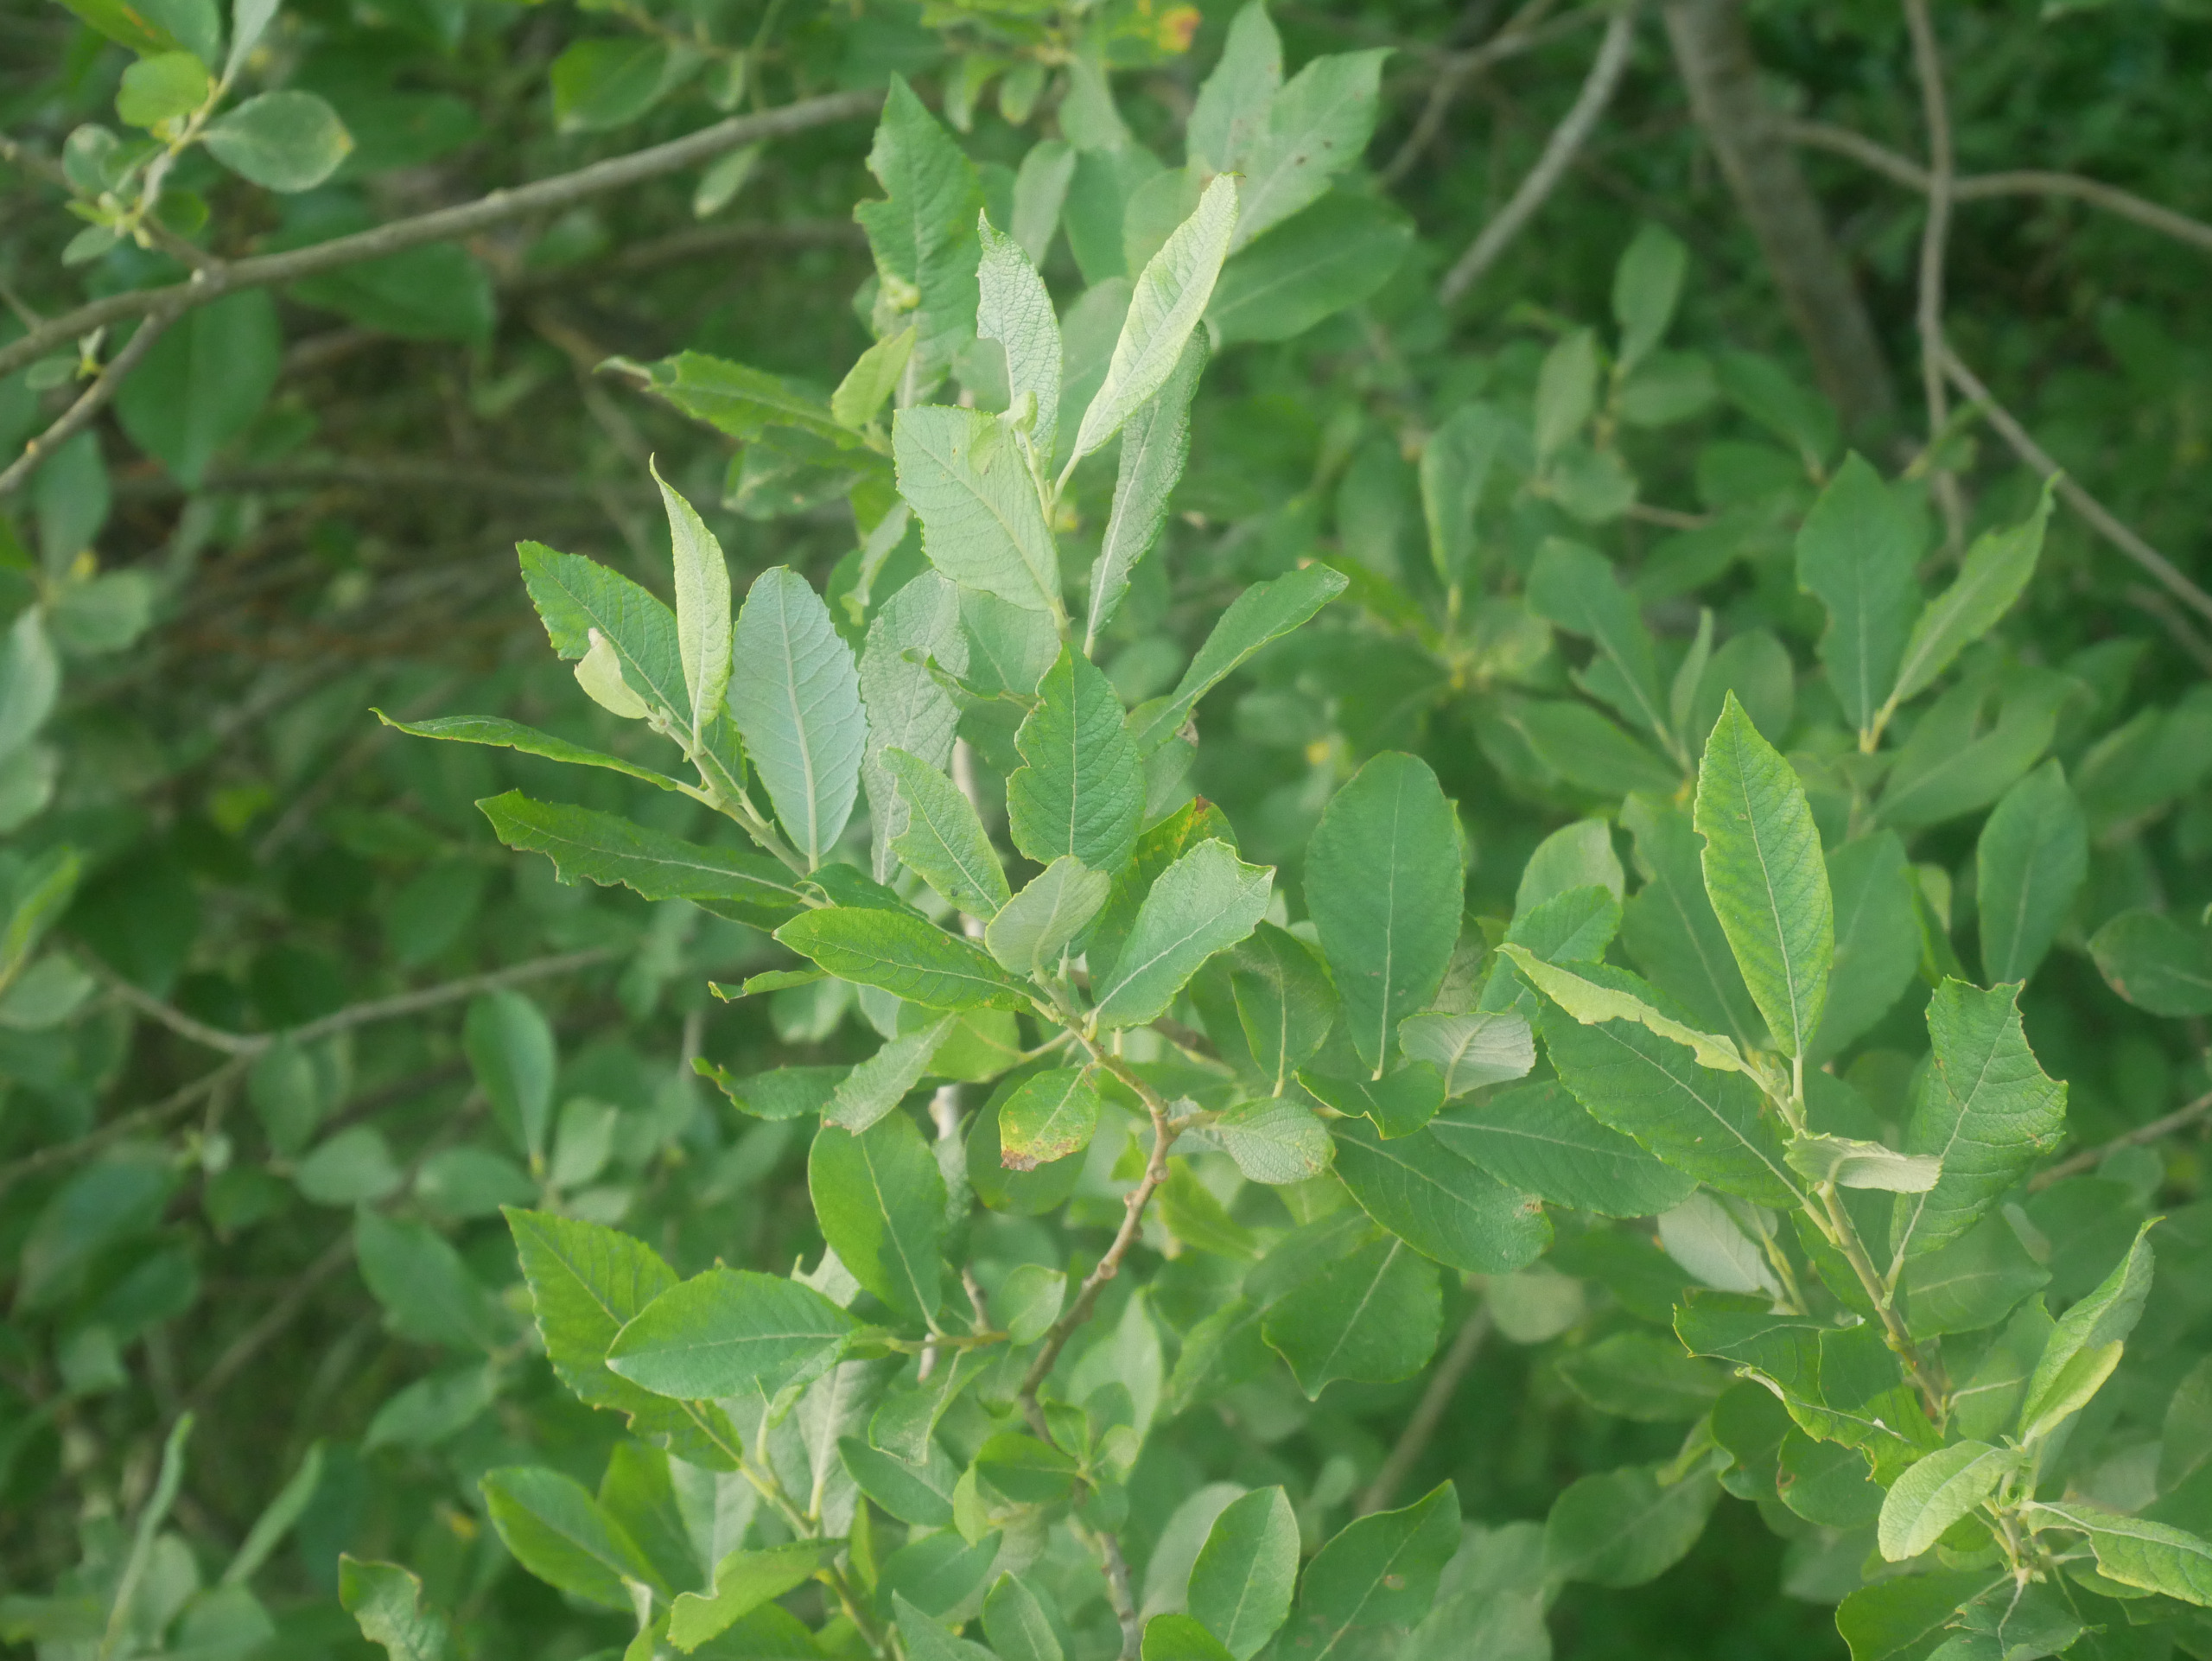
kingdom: Plantae
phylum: Tracheophyta
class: Magnoliopsida
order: Malpighiales
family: Salicaceae
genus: Salix
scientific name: Salix cinerea
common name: Grå-pil
